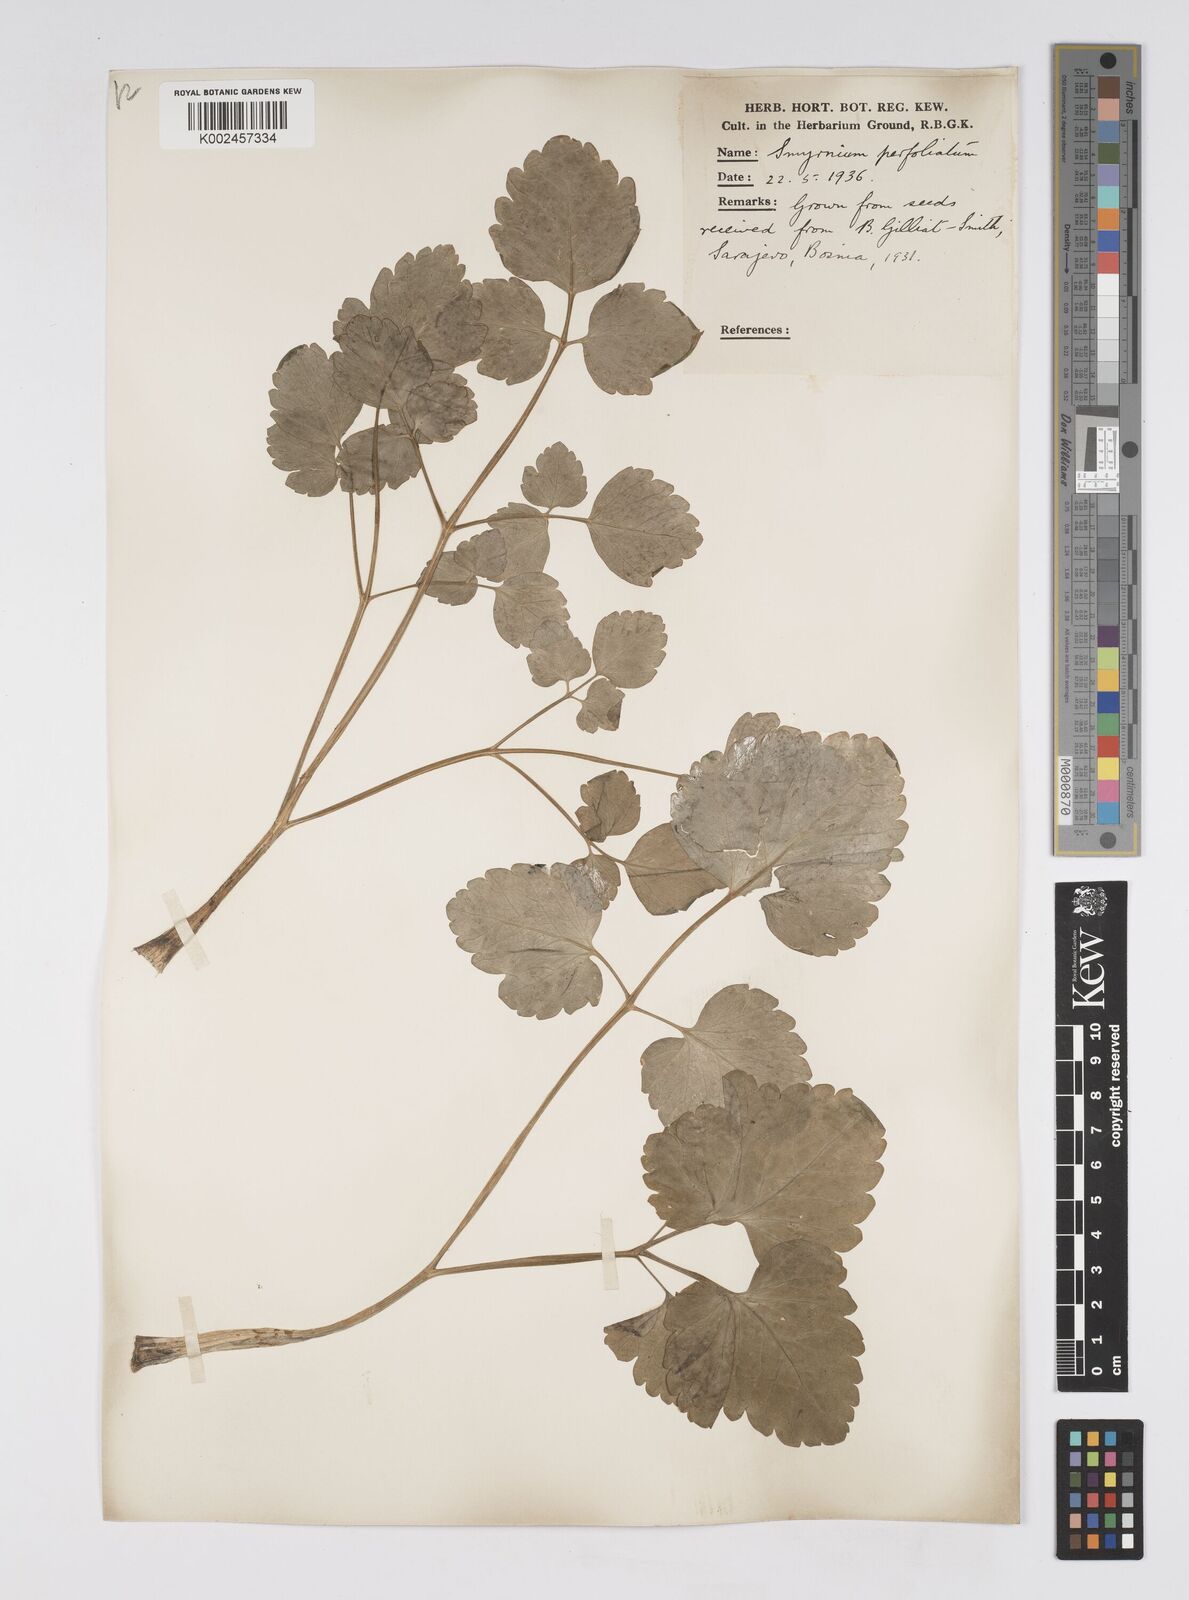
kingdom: Plantae
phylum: Tracheophyta
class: Magnoliopsida
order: Apiales
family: Apiaceae
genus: Smyrnium
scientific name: Smyrnium perfoliatum
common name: Perfoliate alexanders
